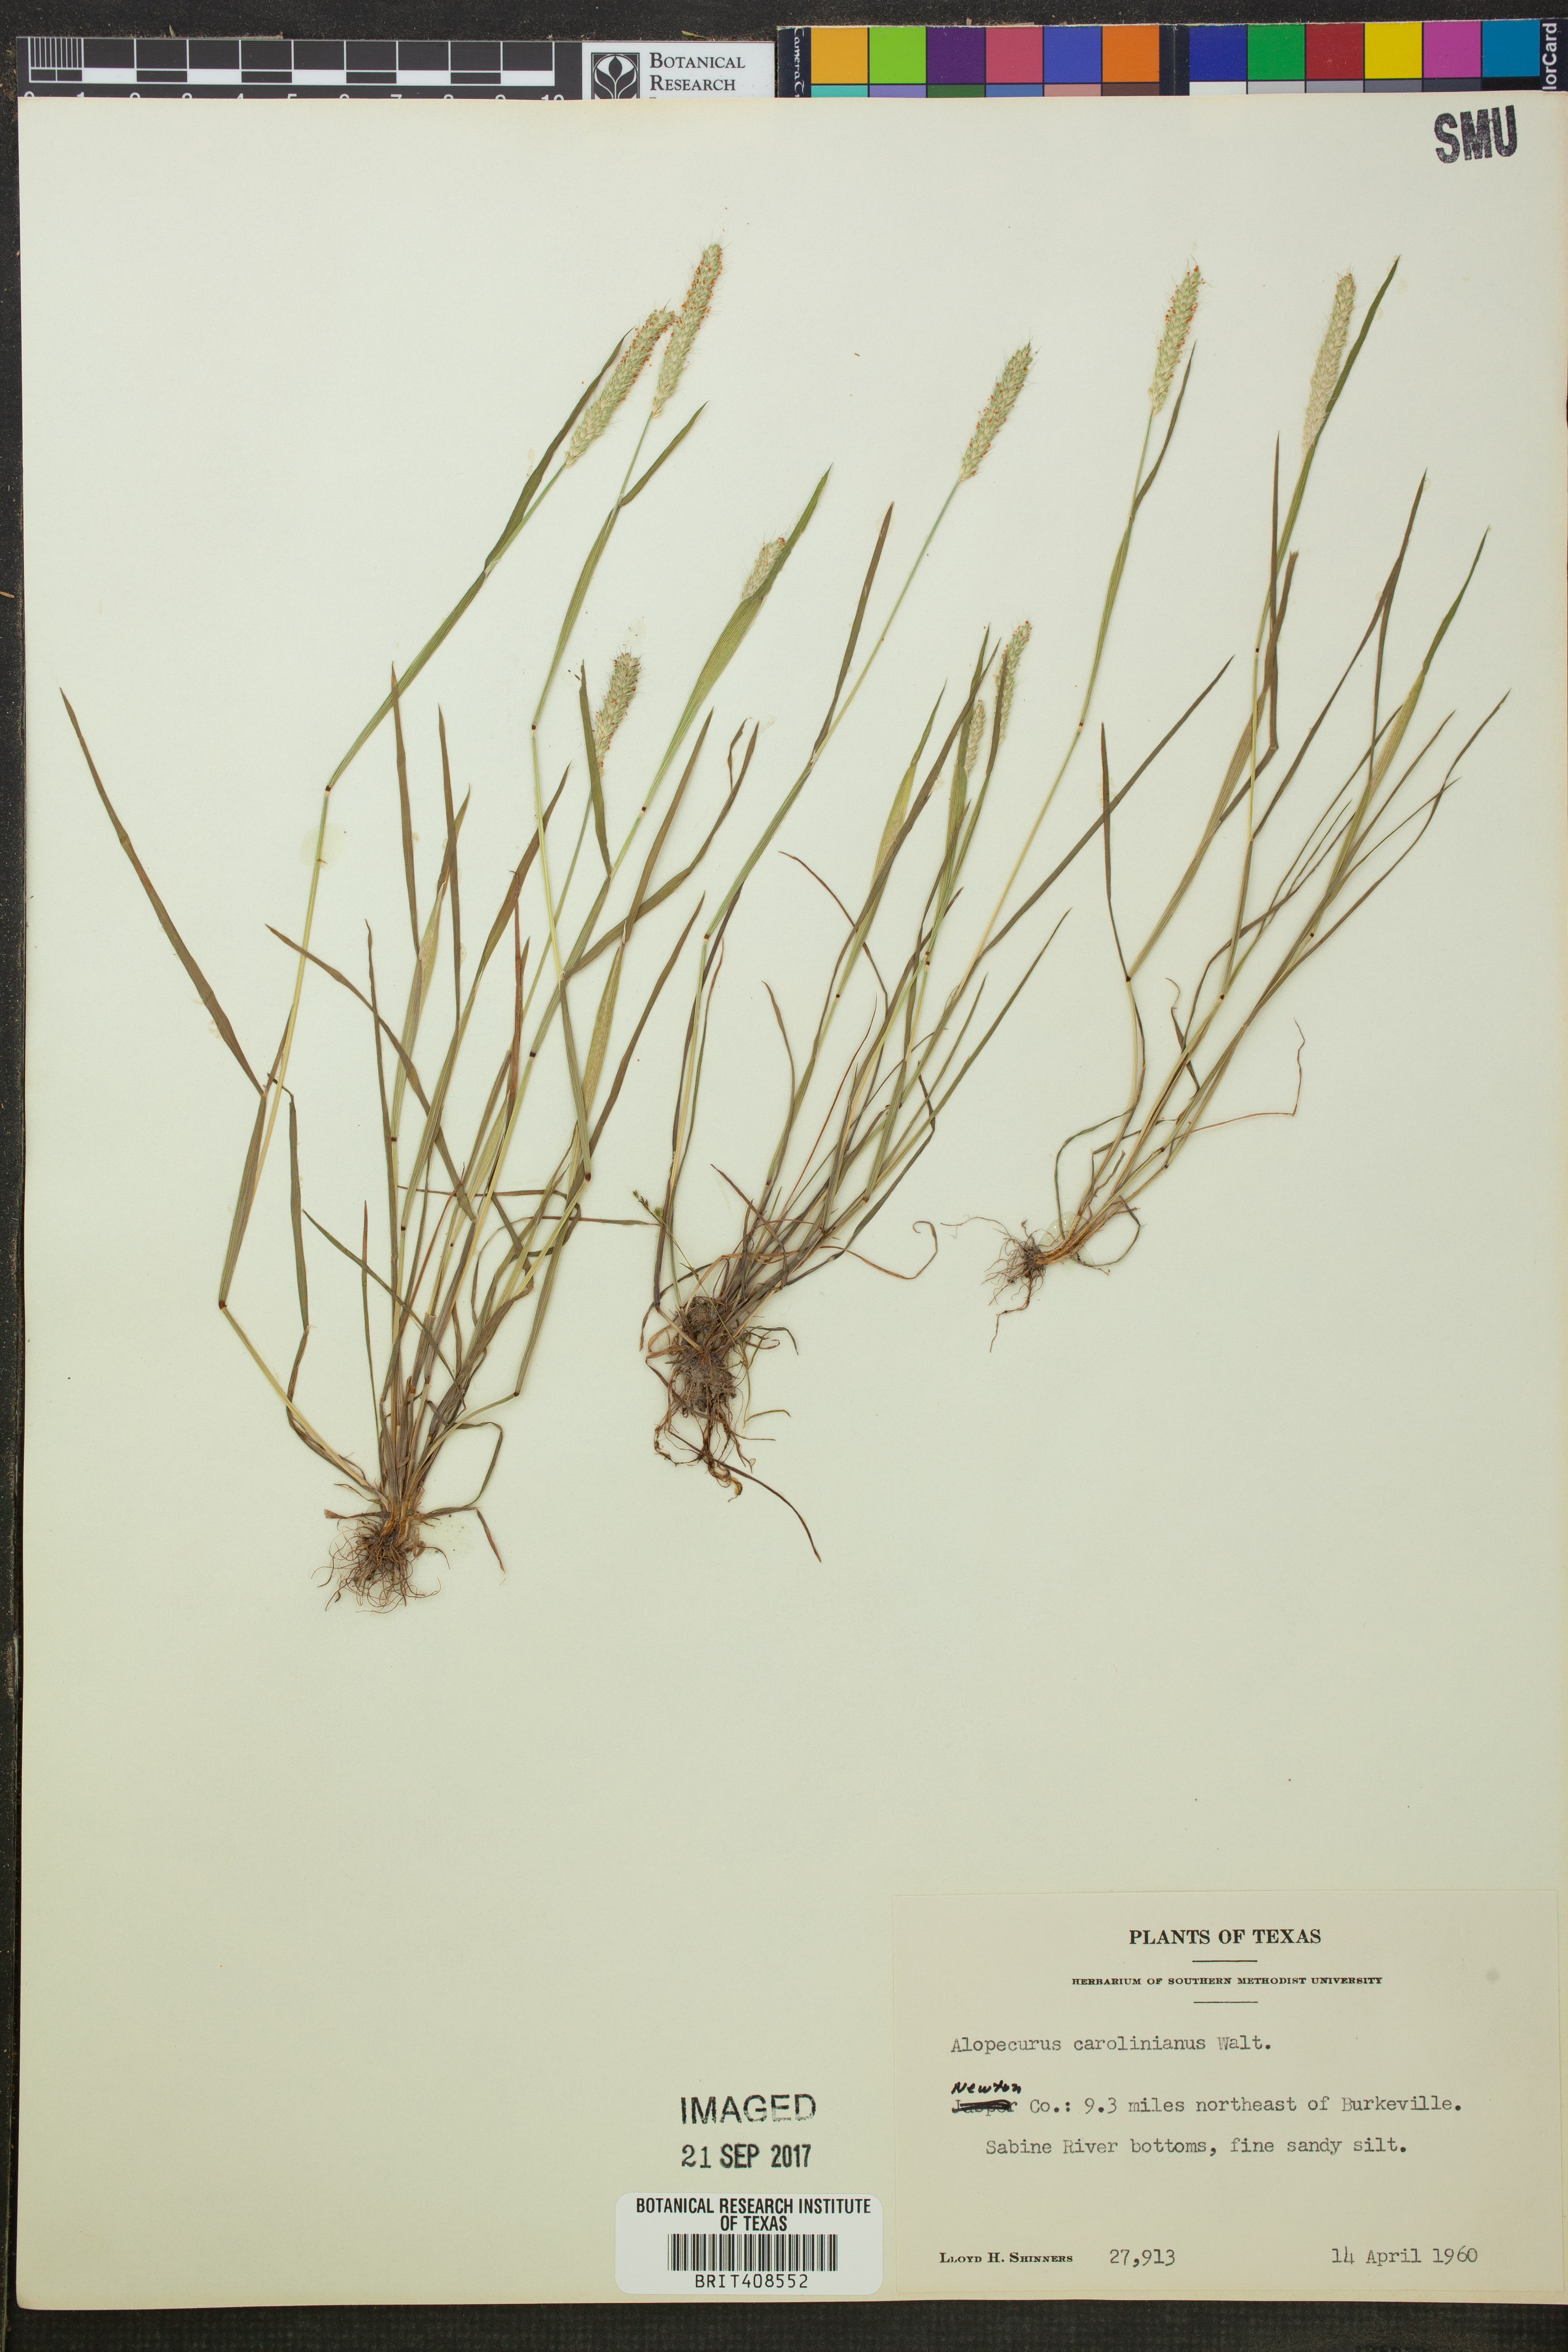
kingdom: Plantae
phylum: Tracheophyta
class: Liliopsida
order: Poales
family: Poaceae
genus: Alopecurus
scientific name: Alopecurus carolinianus
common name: Tufted foxtail
